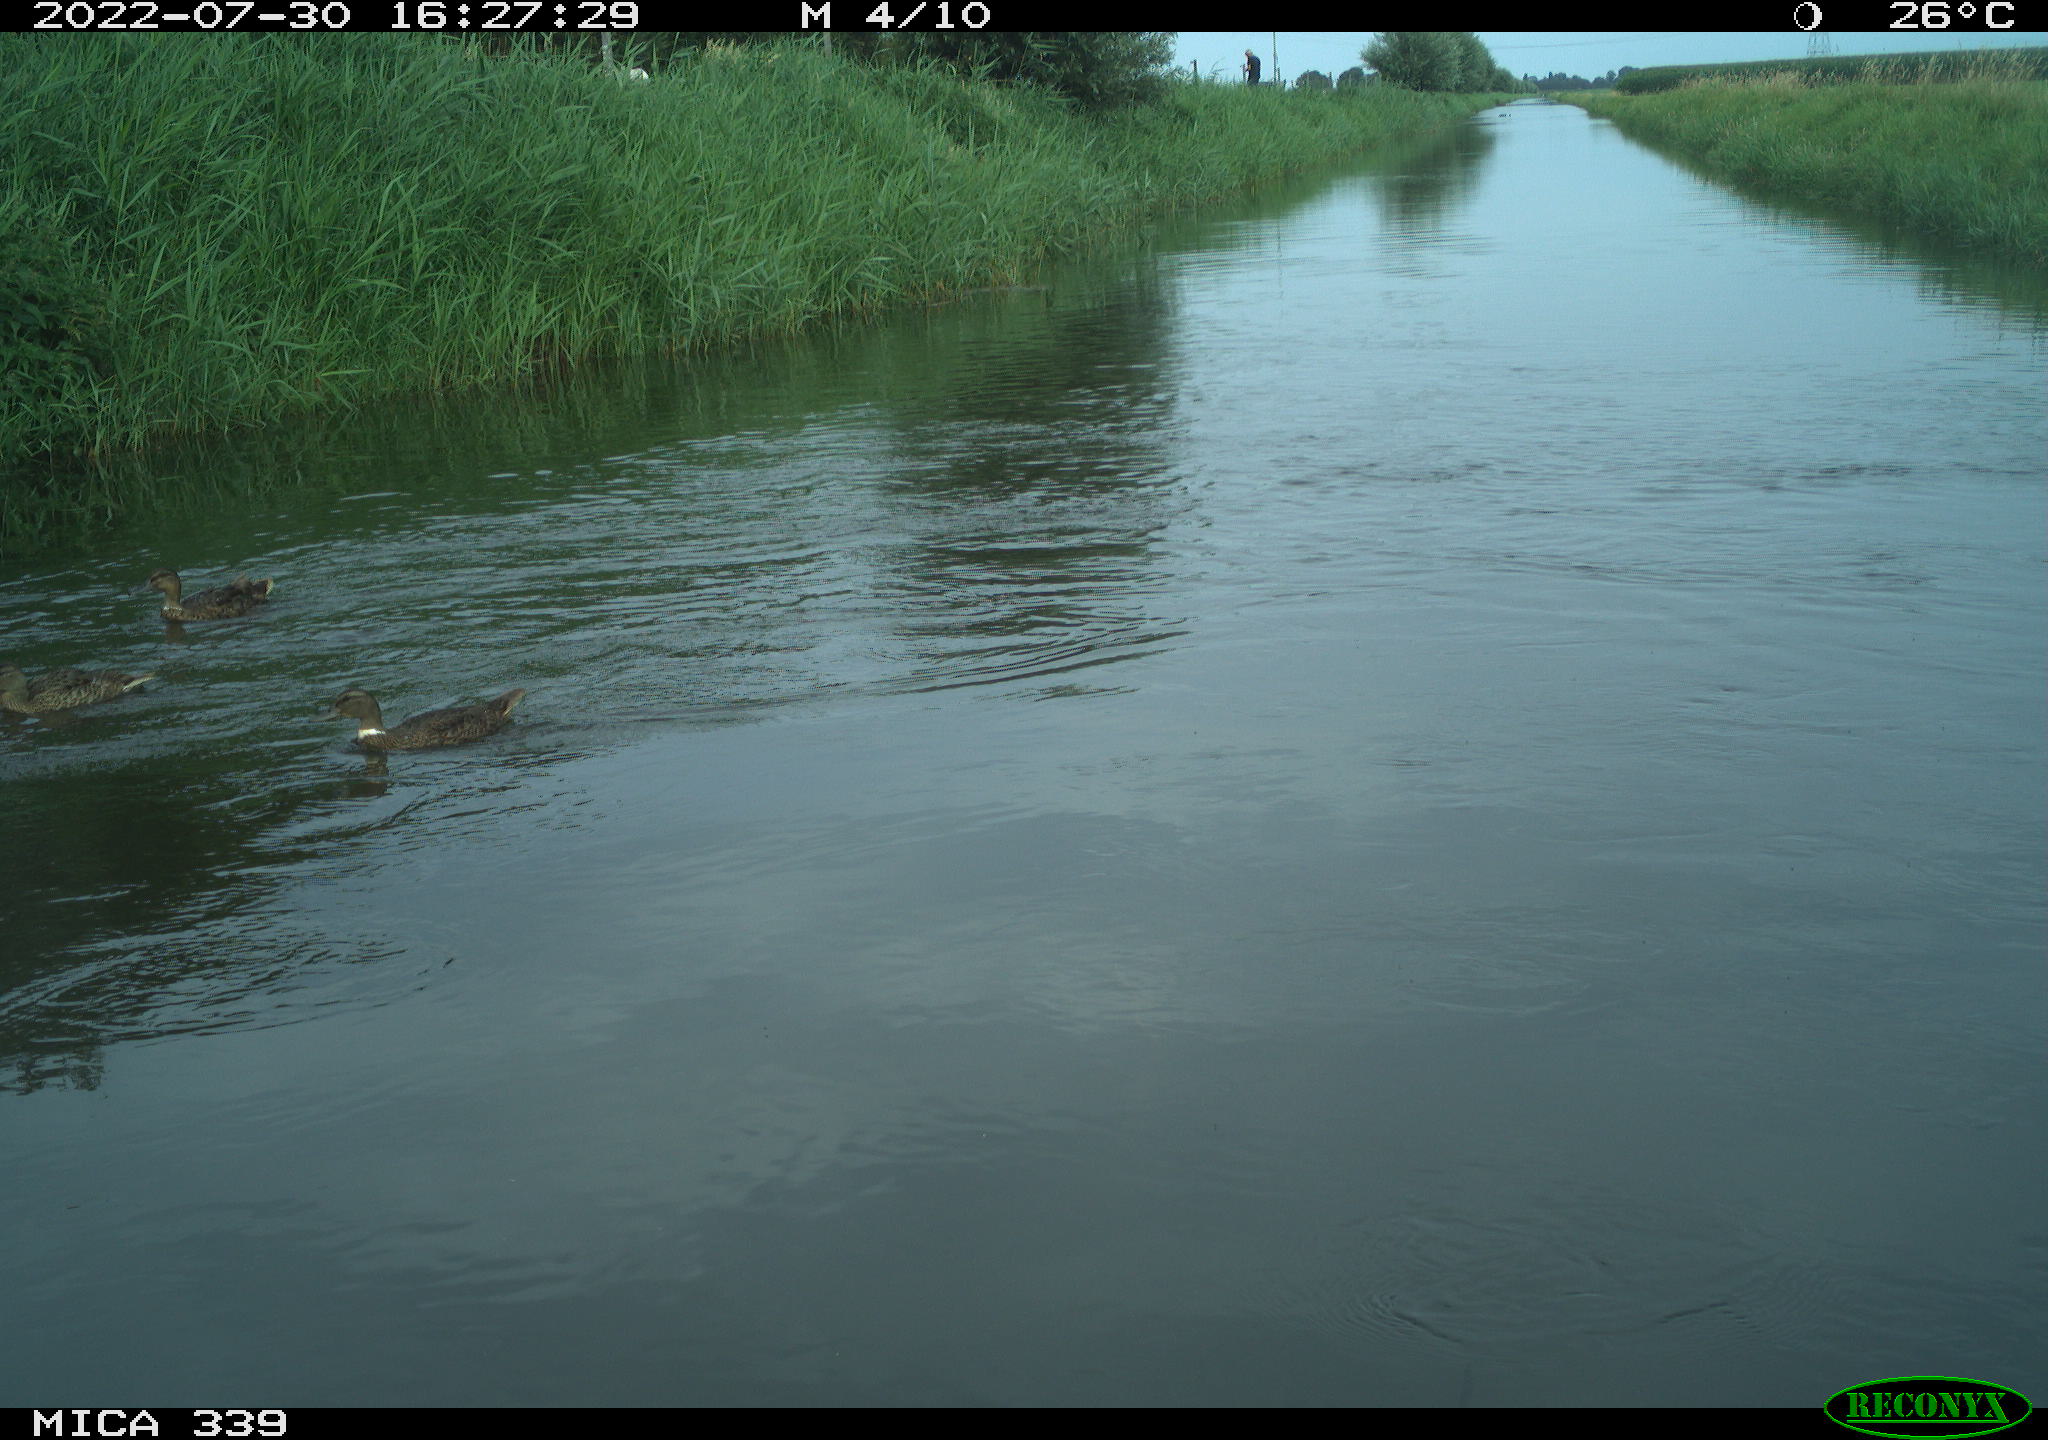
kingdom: Animalia
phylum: Chordata
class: Aves
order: Anseriformes
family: Anatidae
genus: Anas
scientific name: Anas platyrhynchos
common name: Mallard
